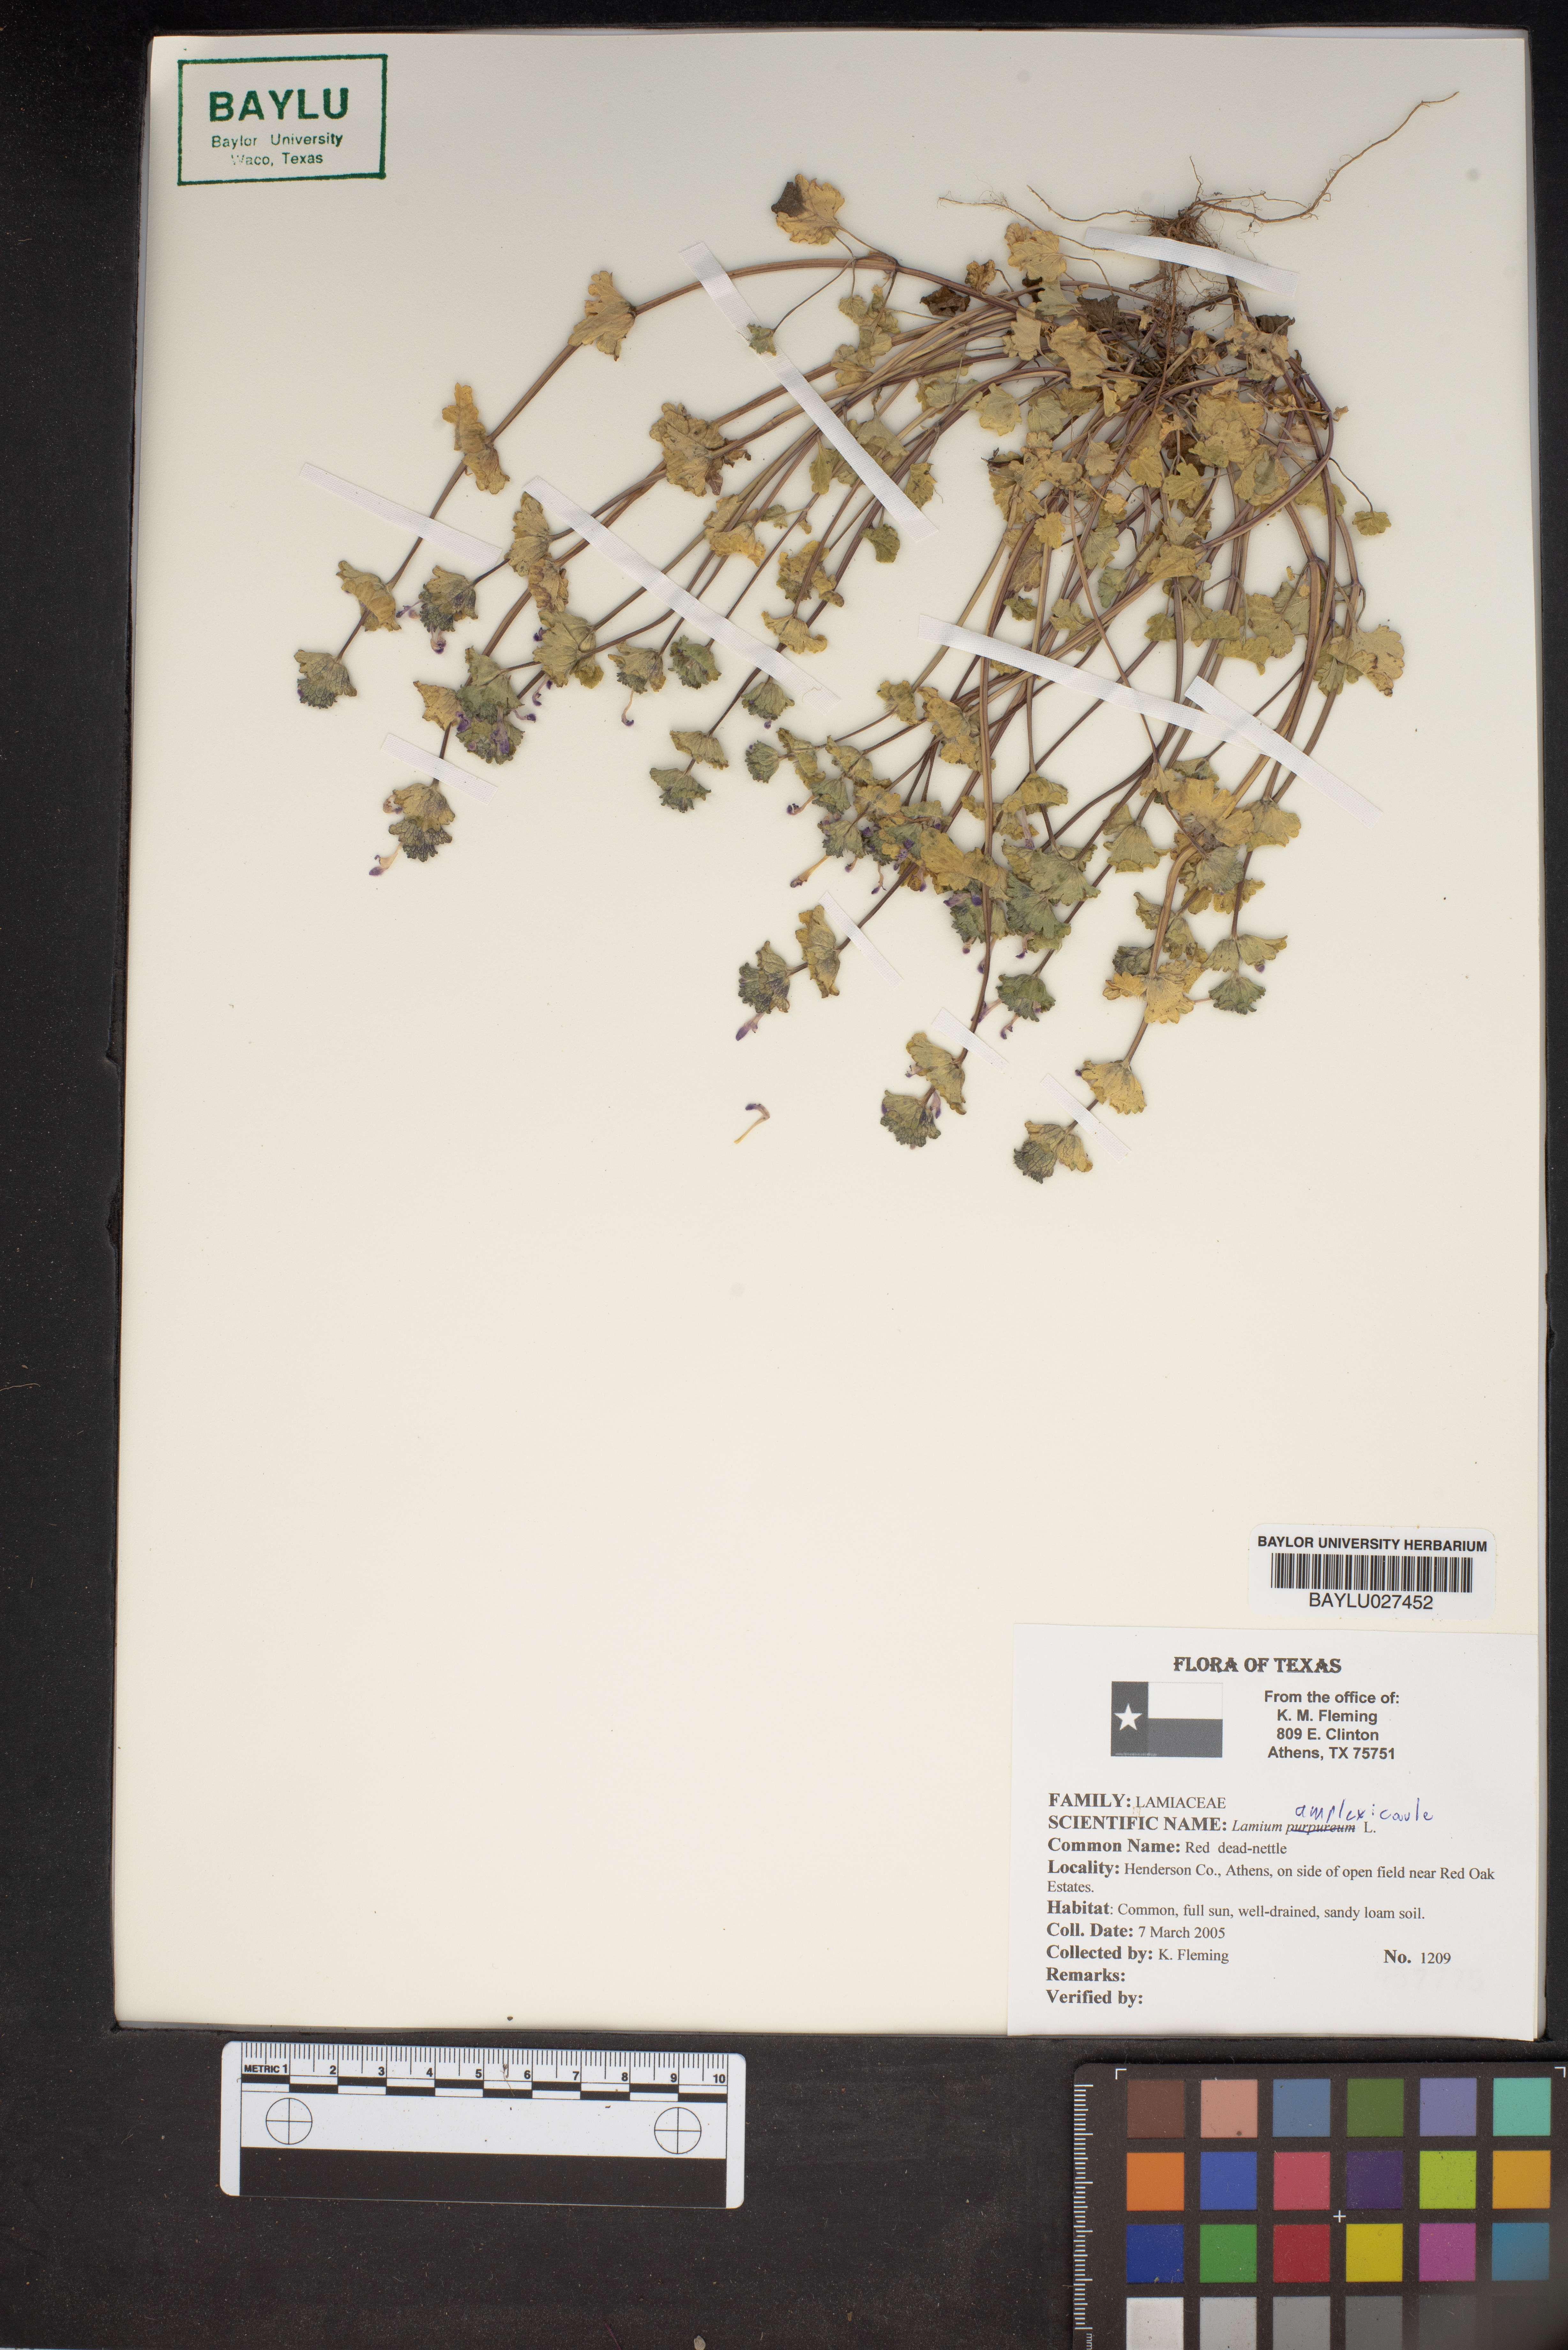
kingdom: Plantae
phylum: Tracheophyta
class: Magnoliopsida
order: Lamiales
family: Lamiaceae
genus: Lamium
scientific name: Lamium amplexicaule
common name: Henbit dead-nettle
